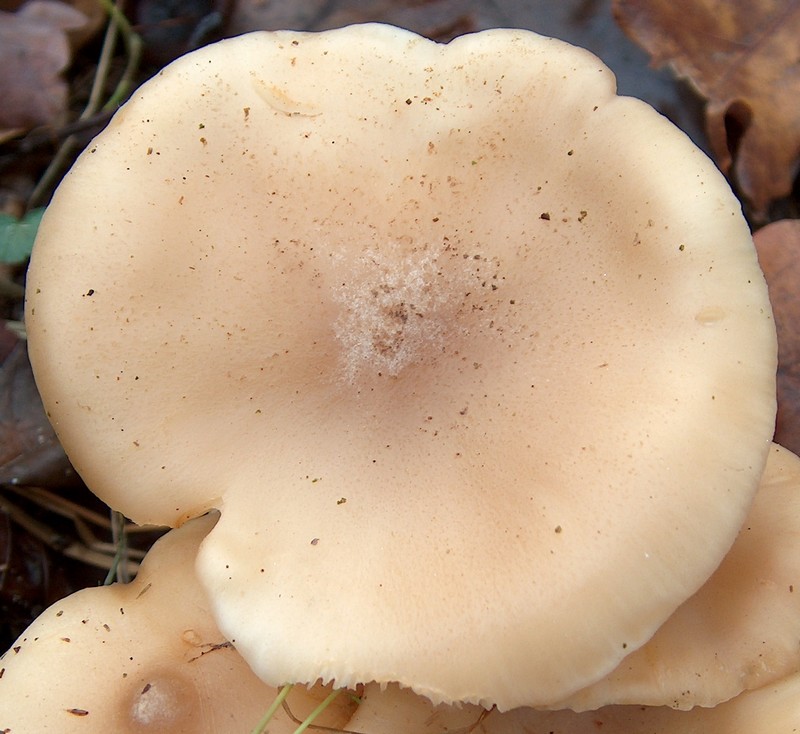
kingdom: Fungi
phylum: Basidiomycota
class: Agaricomycetes
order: Agaricales
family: Lyophyllaceae
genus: Tephrocybe
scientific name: Tephrocybe
